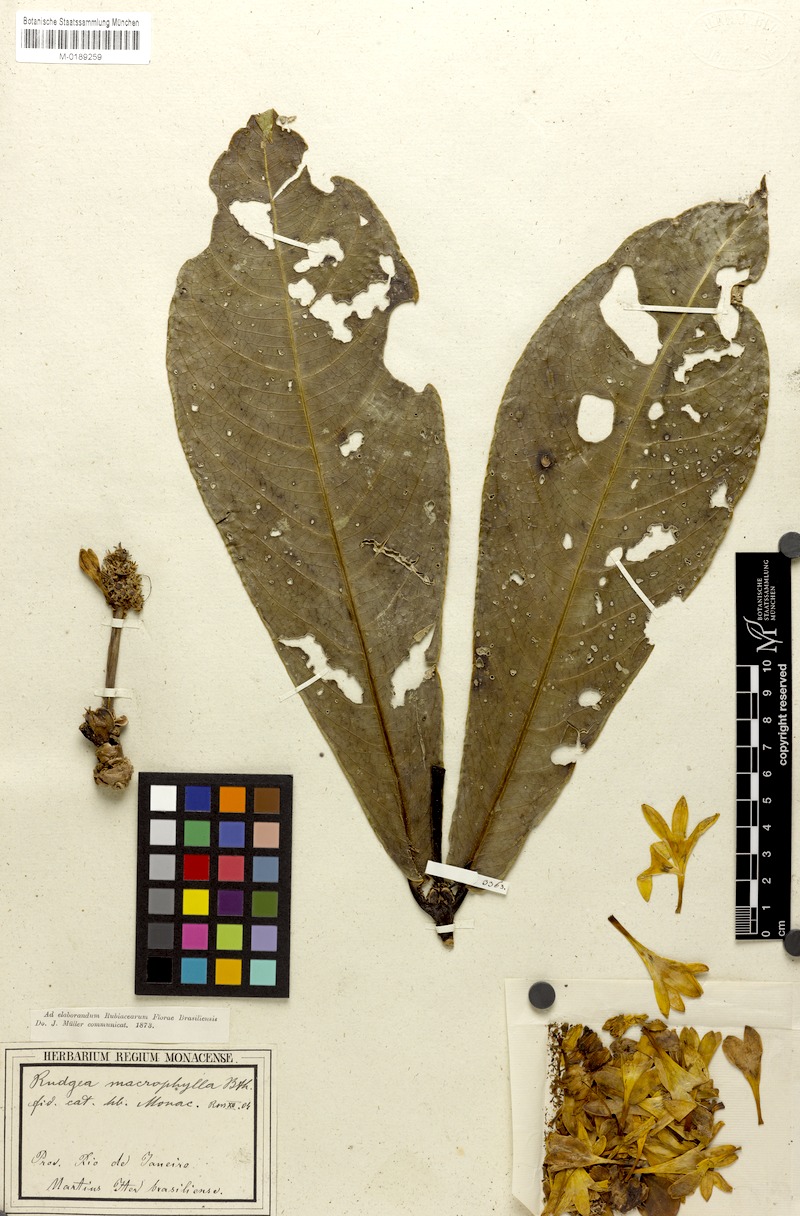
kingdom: Plantae
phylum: Tracheophyta
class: Magnoliopsida
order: Gentianales
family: Rubiaceae
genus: Rudgea
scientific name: Rudgea macrophylla
